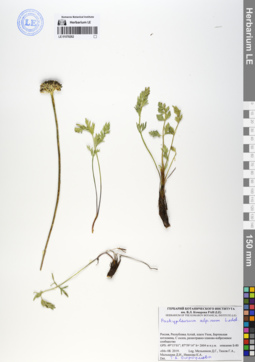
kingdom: Plantae
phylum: Tracheophyta
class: Magnoliopsida
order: Apiales
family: Apiaceae
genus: Pachypleurum
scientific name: Pachypleurum mutellinoides
